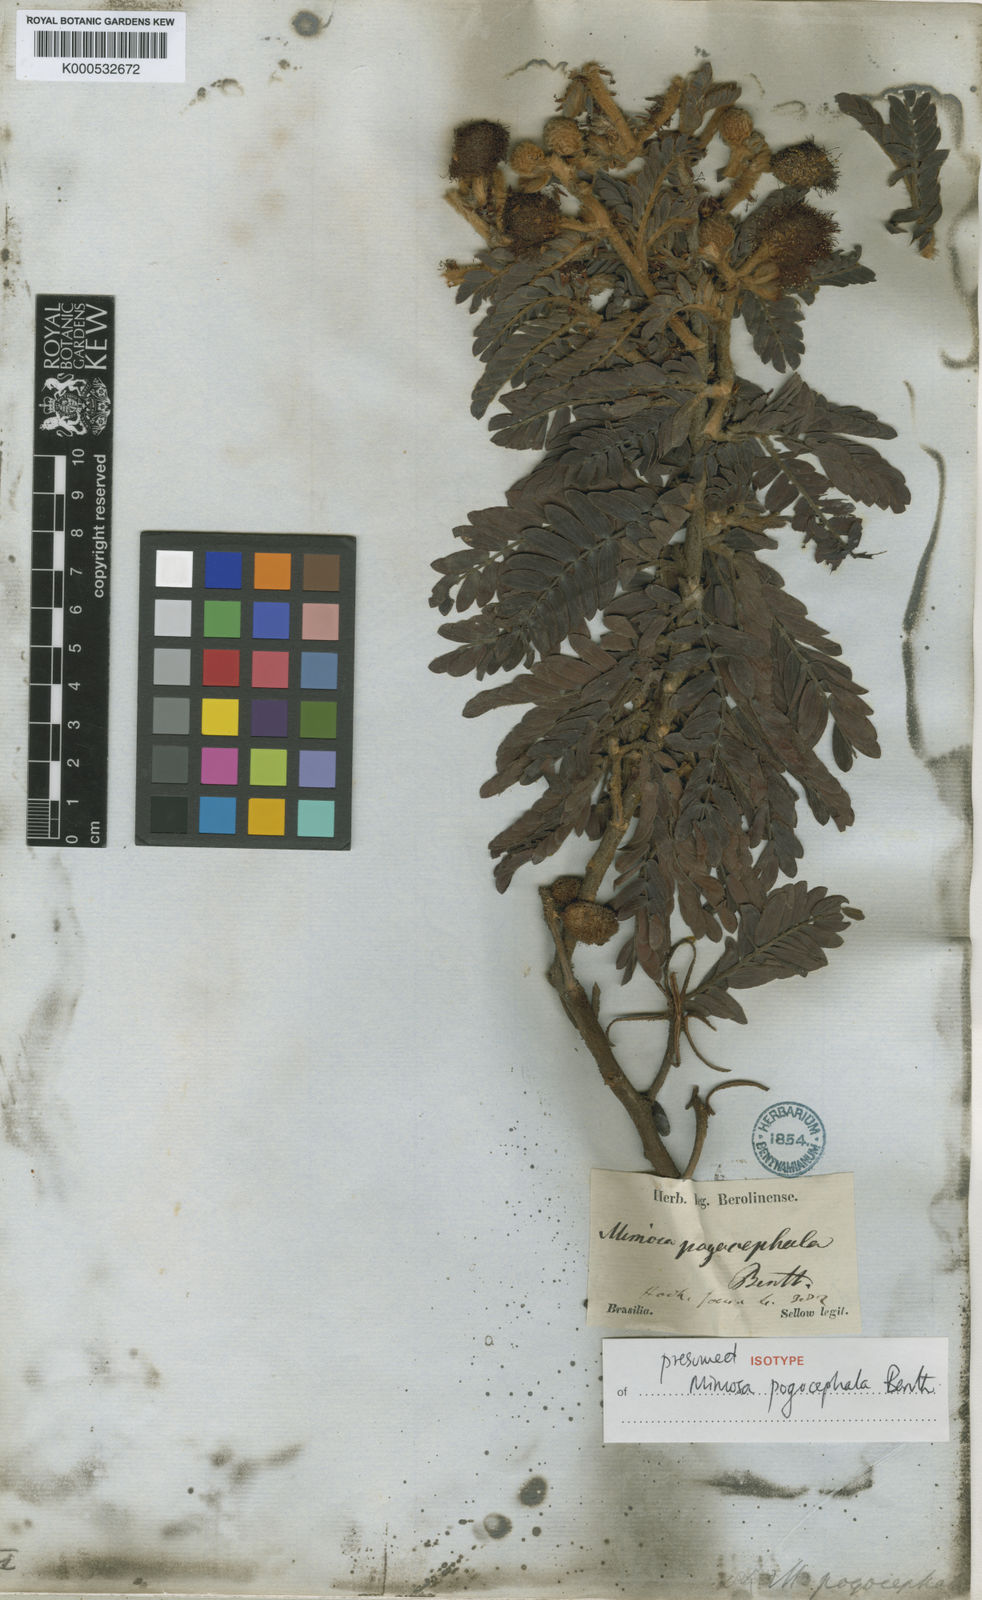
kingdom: Plantae
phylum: Tracheophyta
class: Magnoliopsida
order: Fabales
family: Fabaceae
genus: Mimosa
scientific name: Mimosa pogocephala
